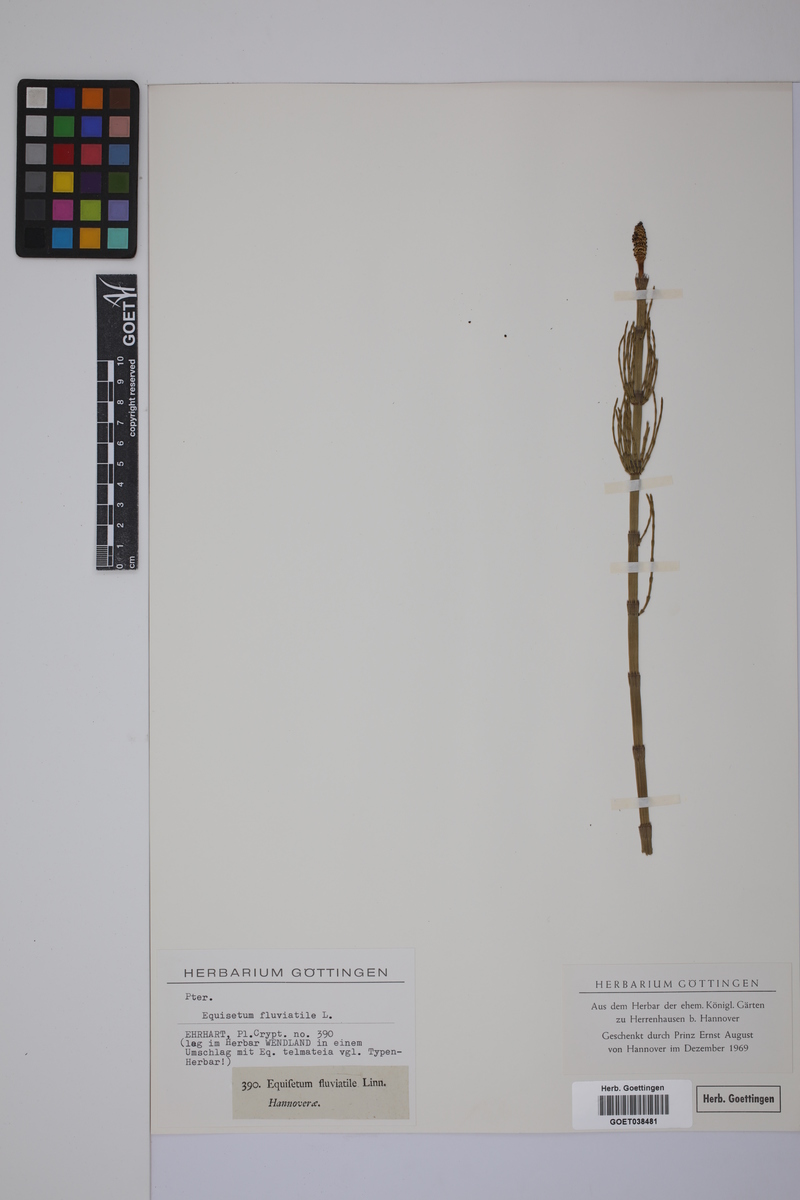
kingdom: Plantae
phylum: Tracheophyta
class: Polypodiopsida
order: Equisetales
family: Equisetaceae
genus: Equisetum
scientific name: Equisetum fluviatile
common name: Water horsetail
